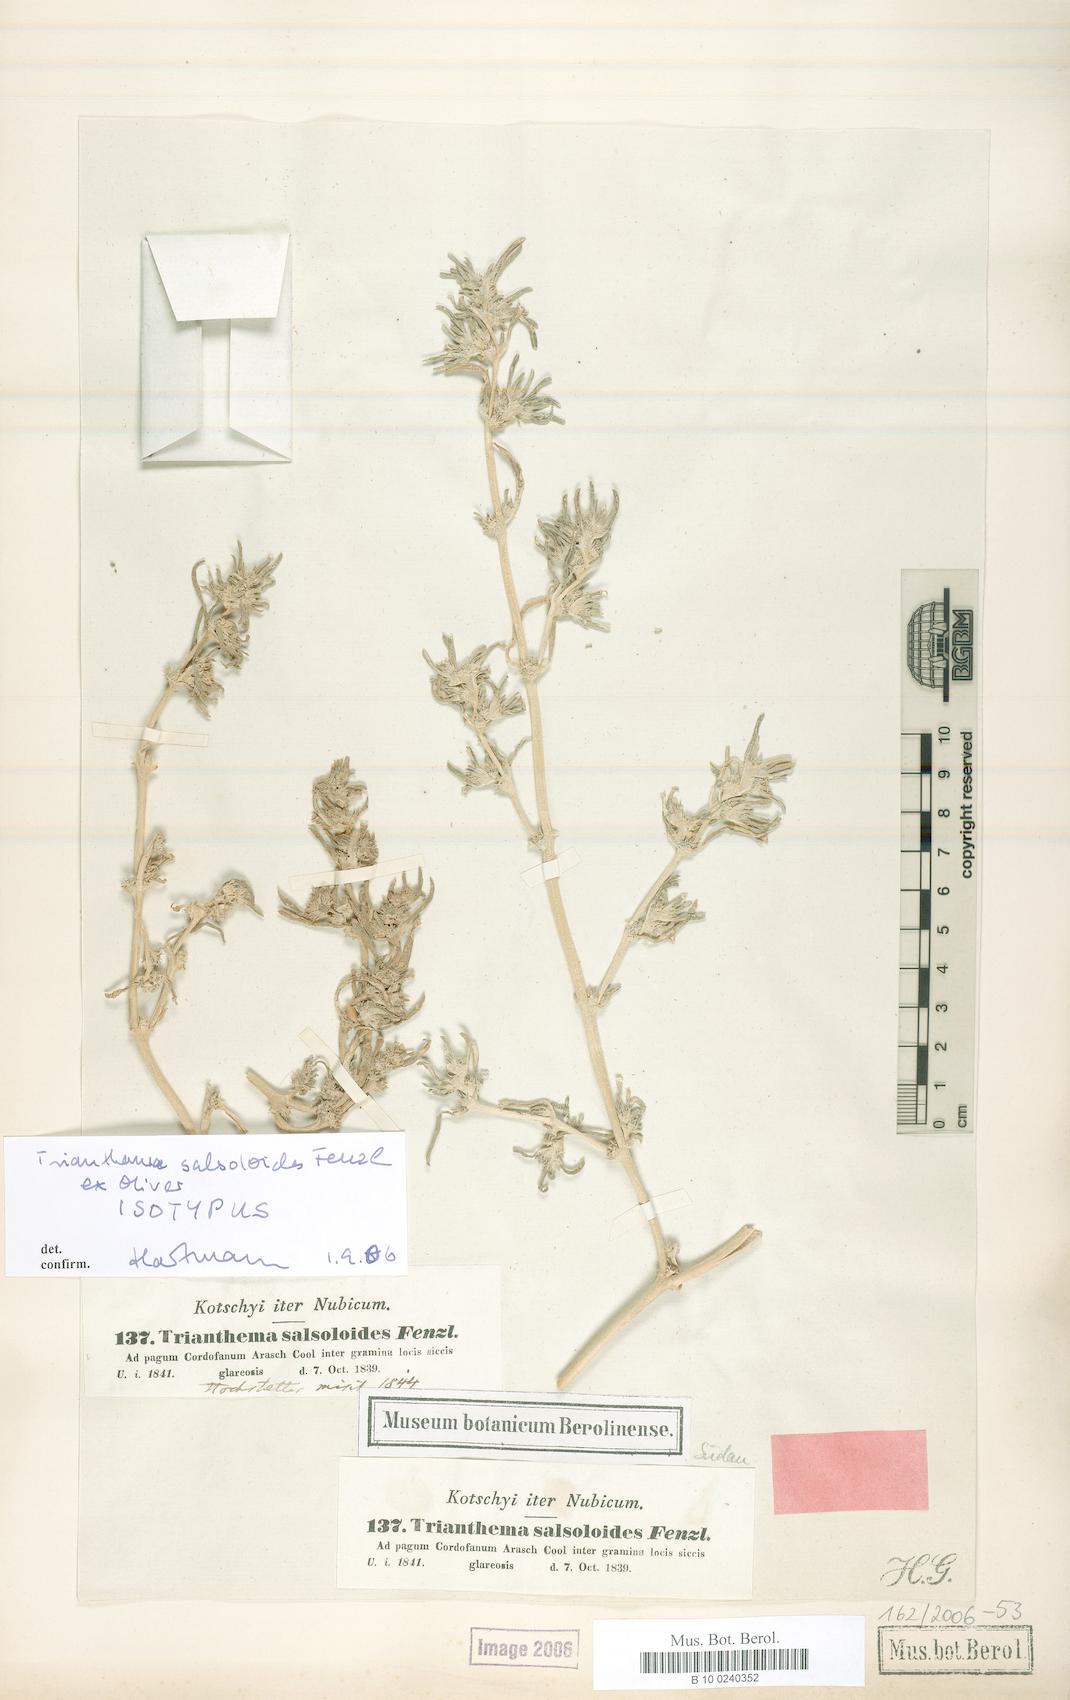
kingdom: Plantae
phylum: Tracheophyta
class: Magnoliopsida
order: Caryophyllales
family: Aizoaceae
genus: Trianthema
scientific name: Trianthema salsoloides
